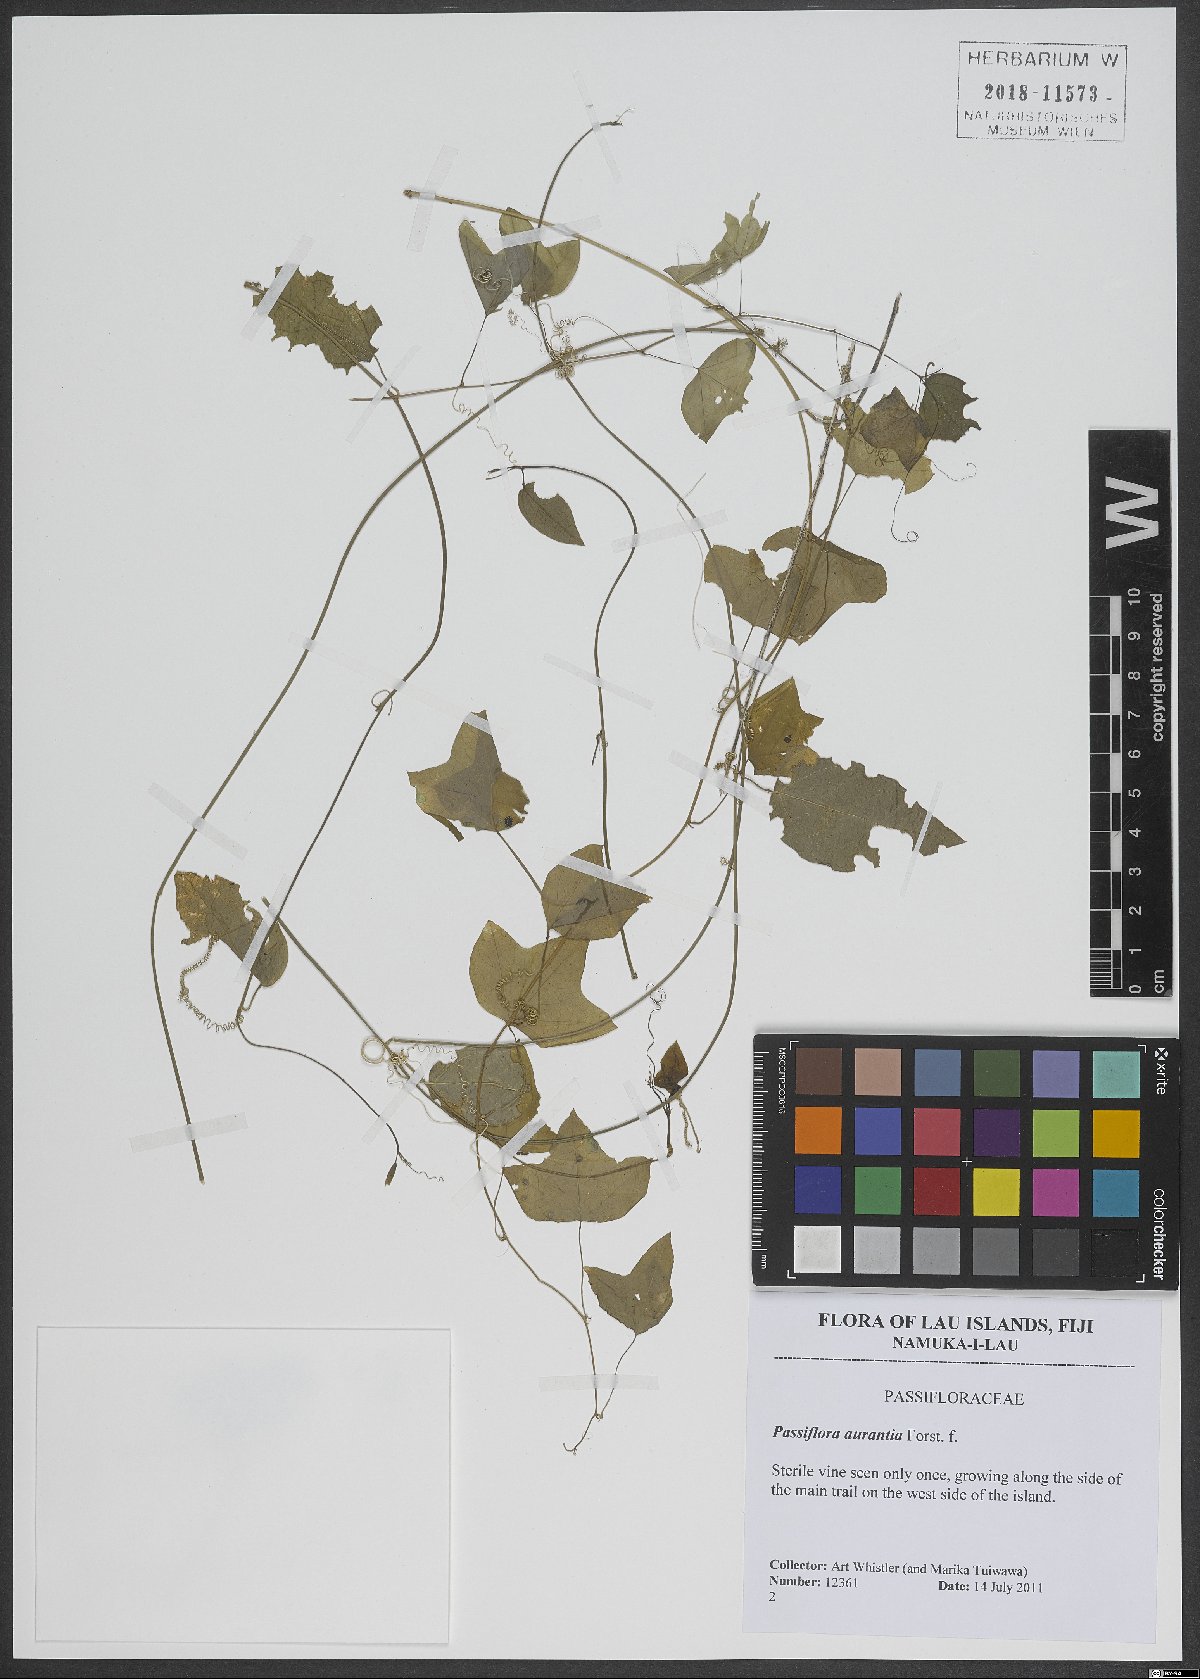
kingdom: Plantae
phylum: Tracheophyta
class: Magnoliopsida
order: Malpighiales
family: Passifloraceae
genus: Passiflora
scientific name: Passiflora aurantia
